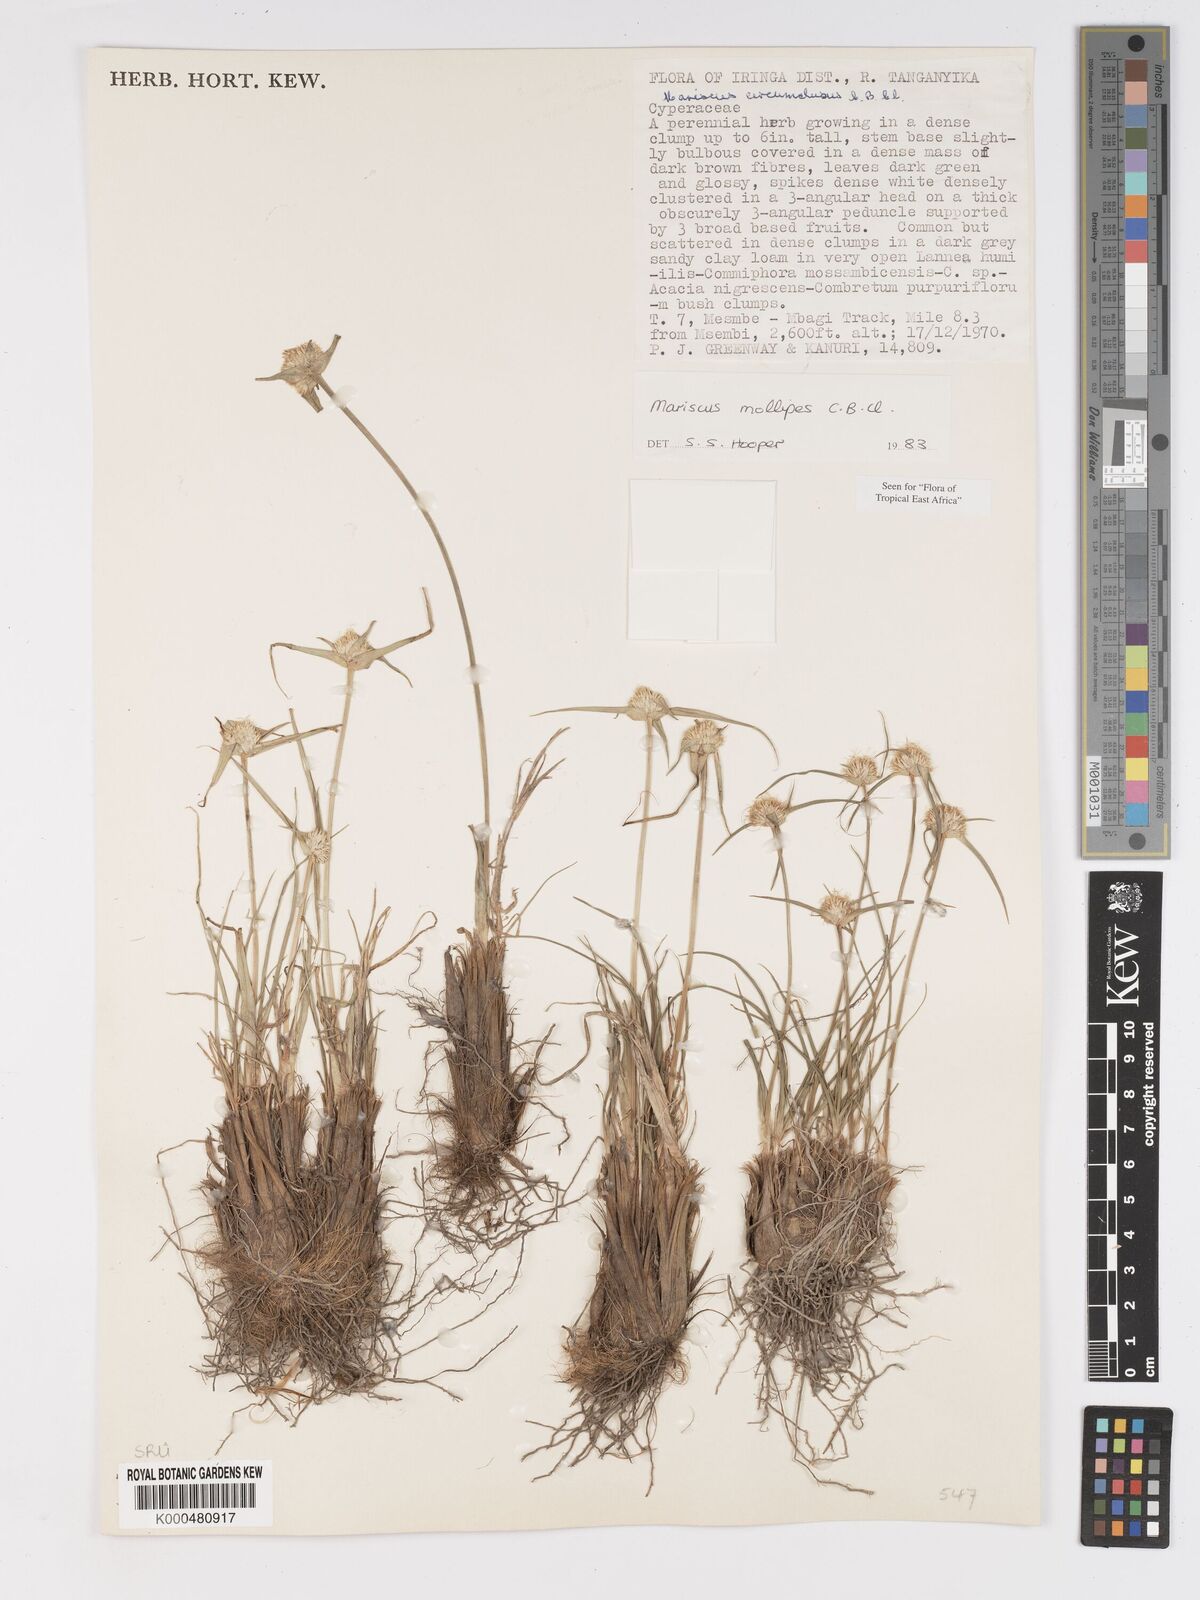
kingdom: Plantae
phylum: Tracheophyta
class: Liliopsida
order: Poales
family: Cyperaceae
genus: Cyperus
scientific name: Cyperus mollipes
